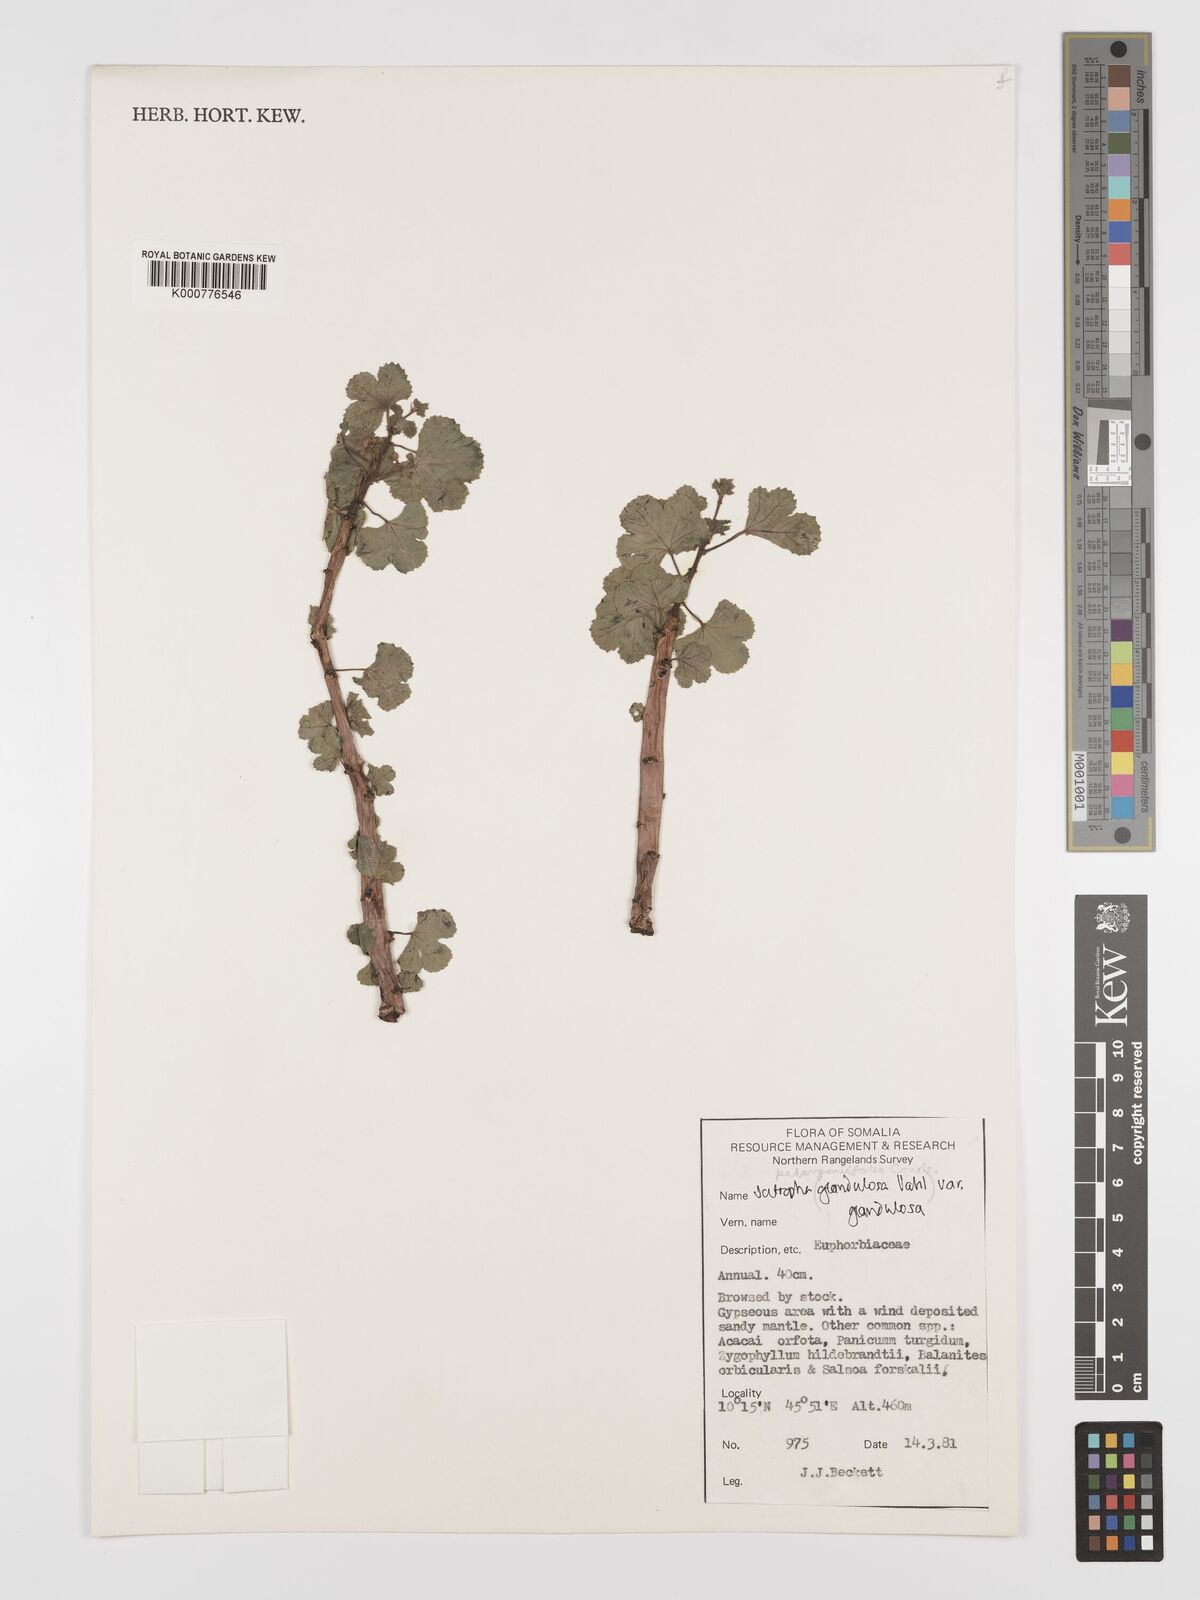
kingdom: Plantae
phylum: Tracheophyta
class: Magnoliopsida
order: Malpighiales
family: Euphorbiaceae
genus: Jatropha
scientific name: Jatropha pelargoniifolia
